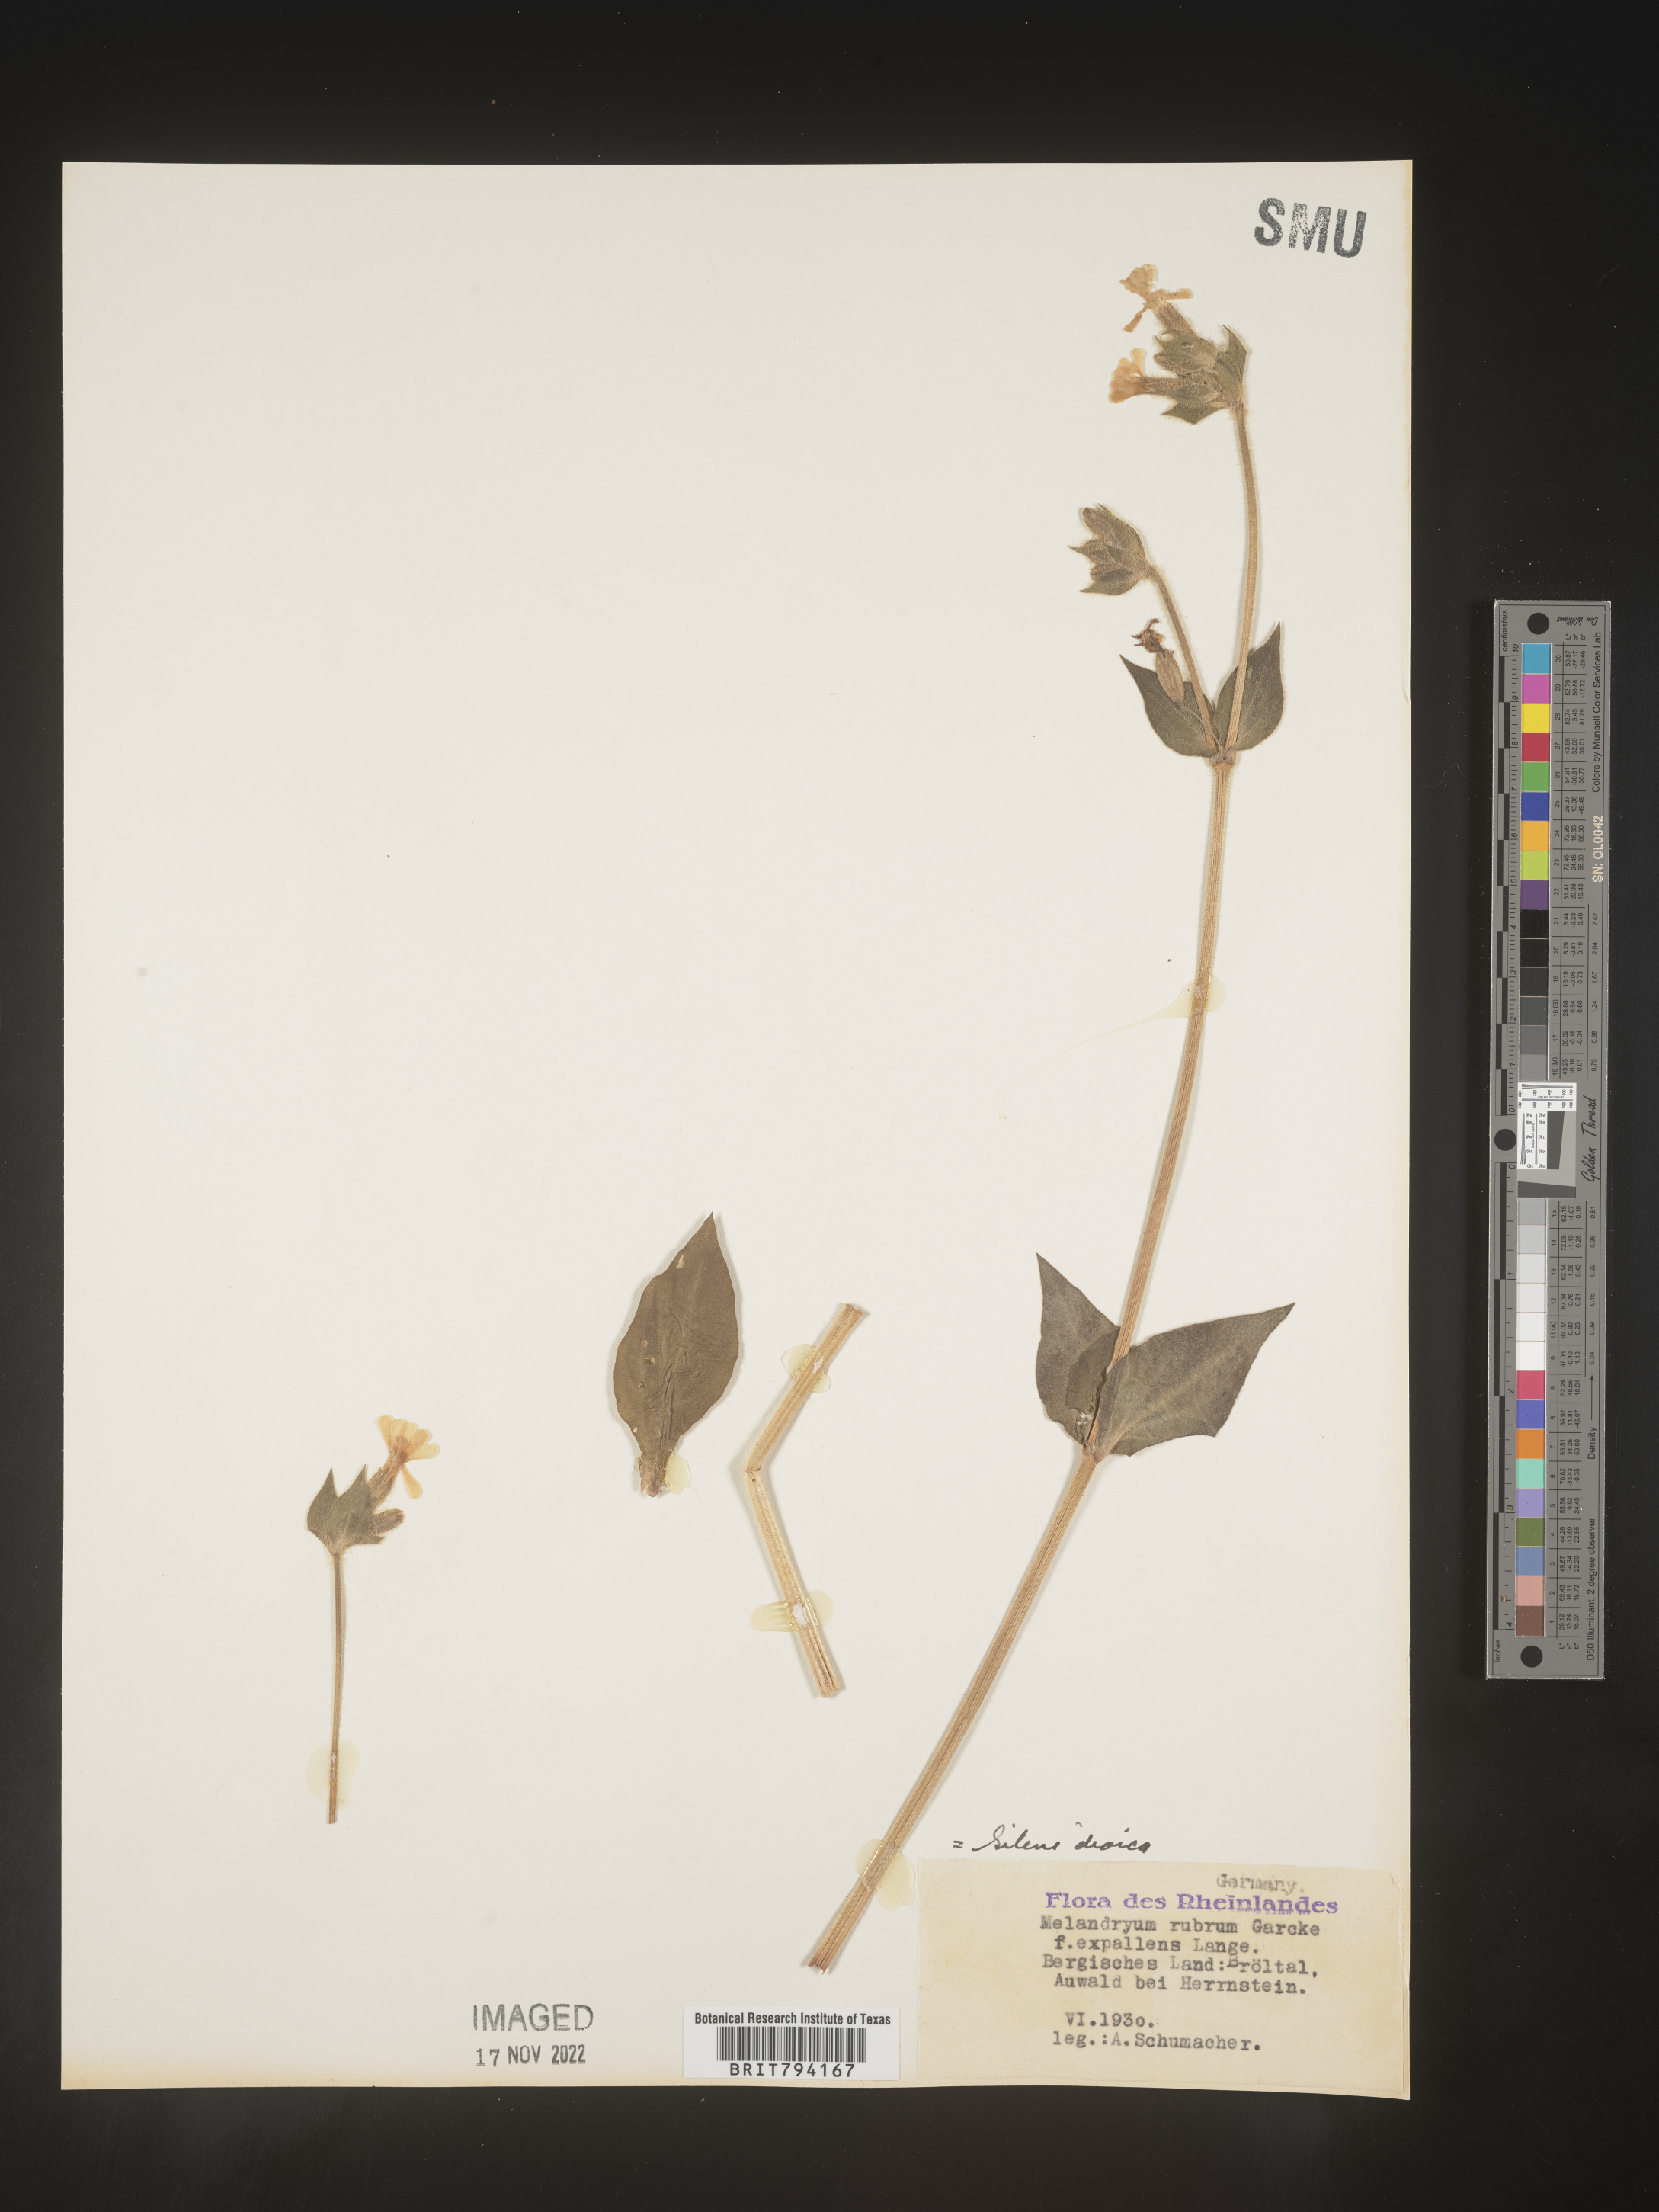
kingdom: Plantae
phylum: Tracheophyta
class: Magnoliopsida
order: Caryophyllales
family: Caryophyllaceae
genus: Silene
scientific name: Silene dioica
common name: Red campion
